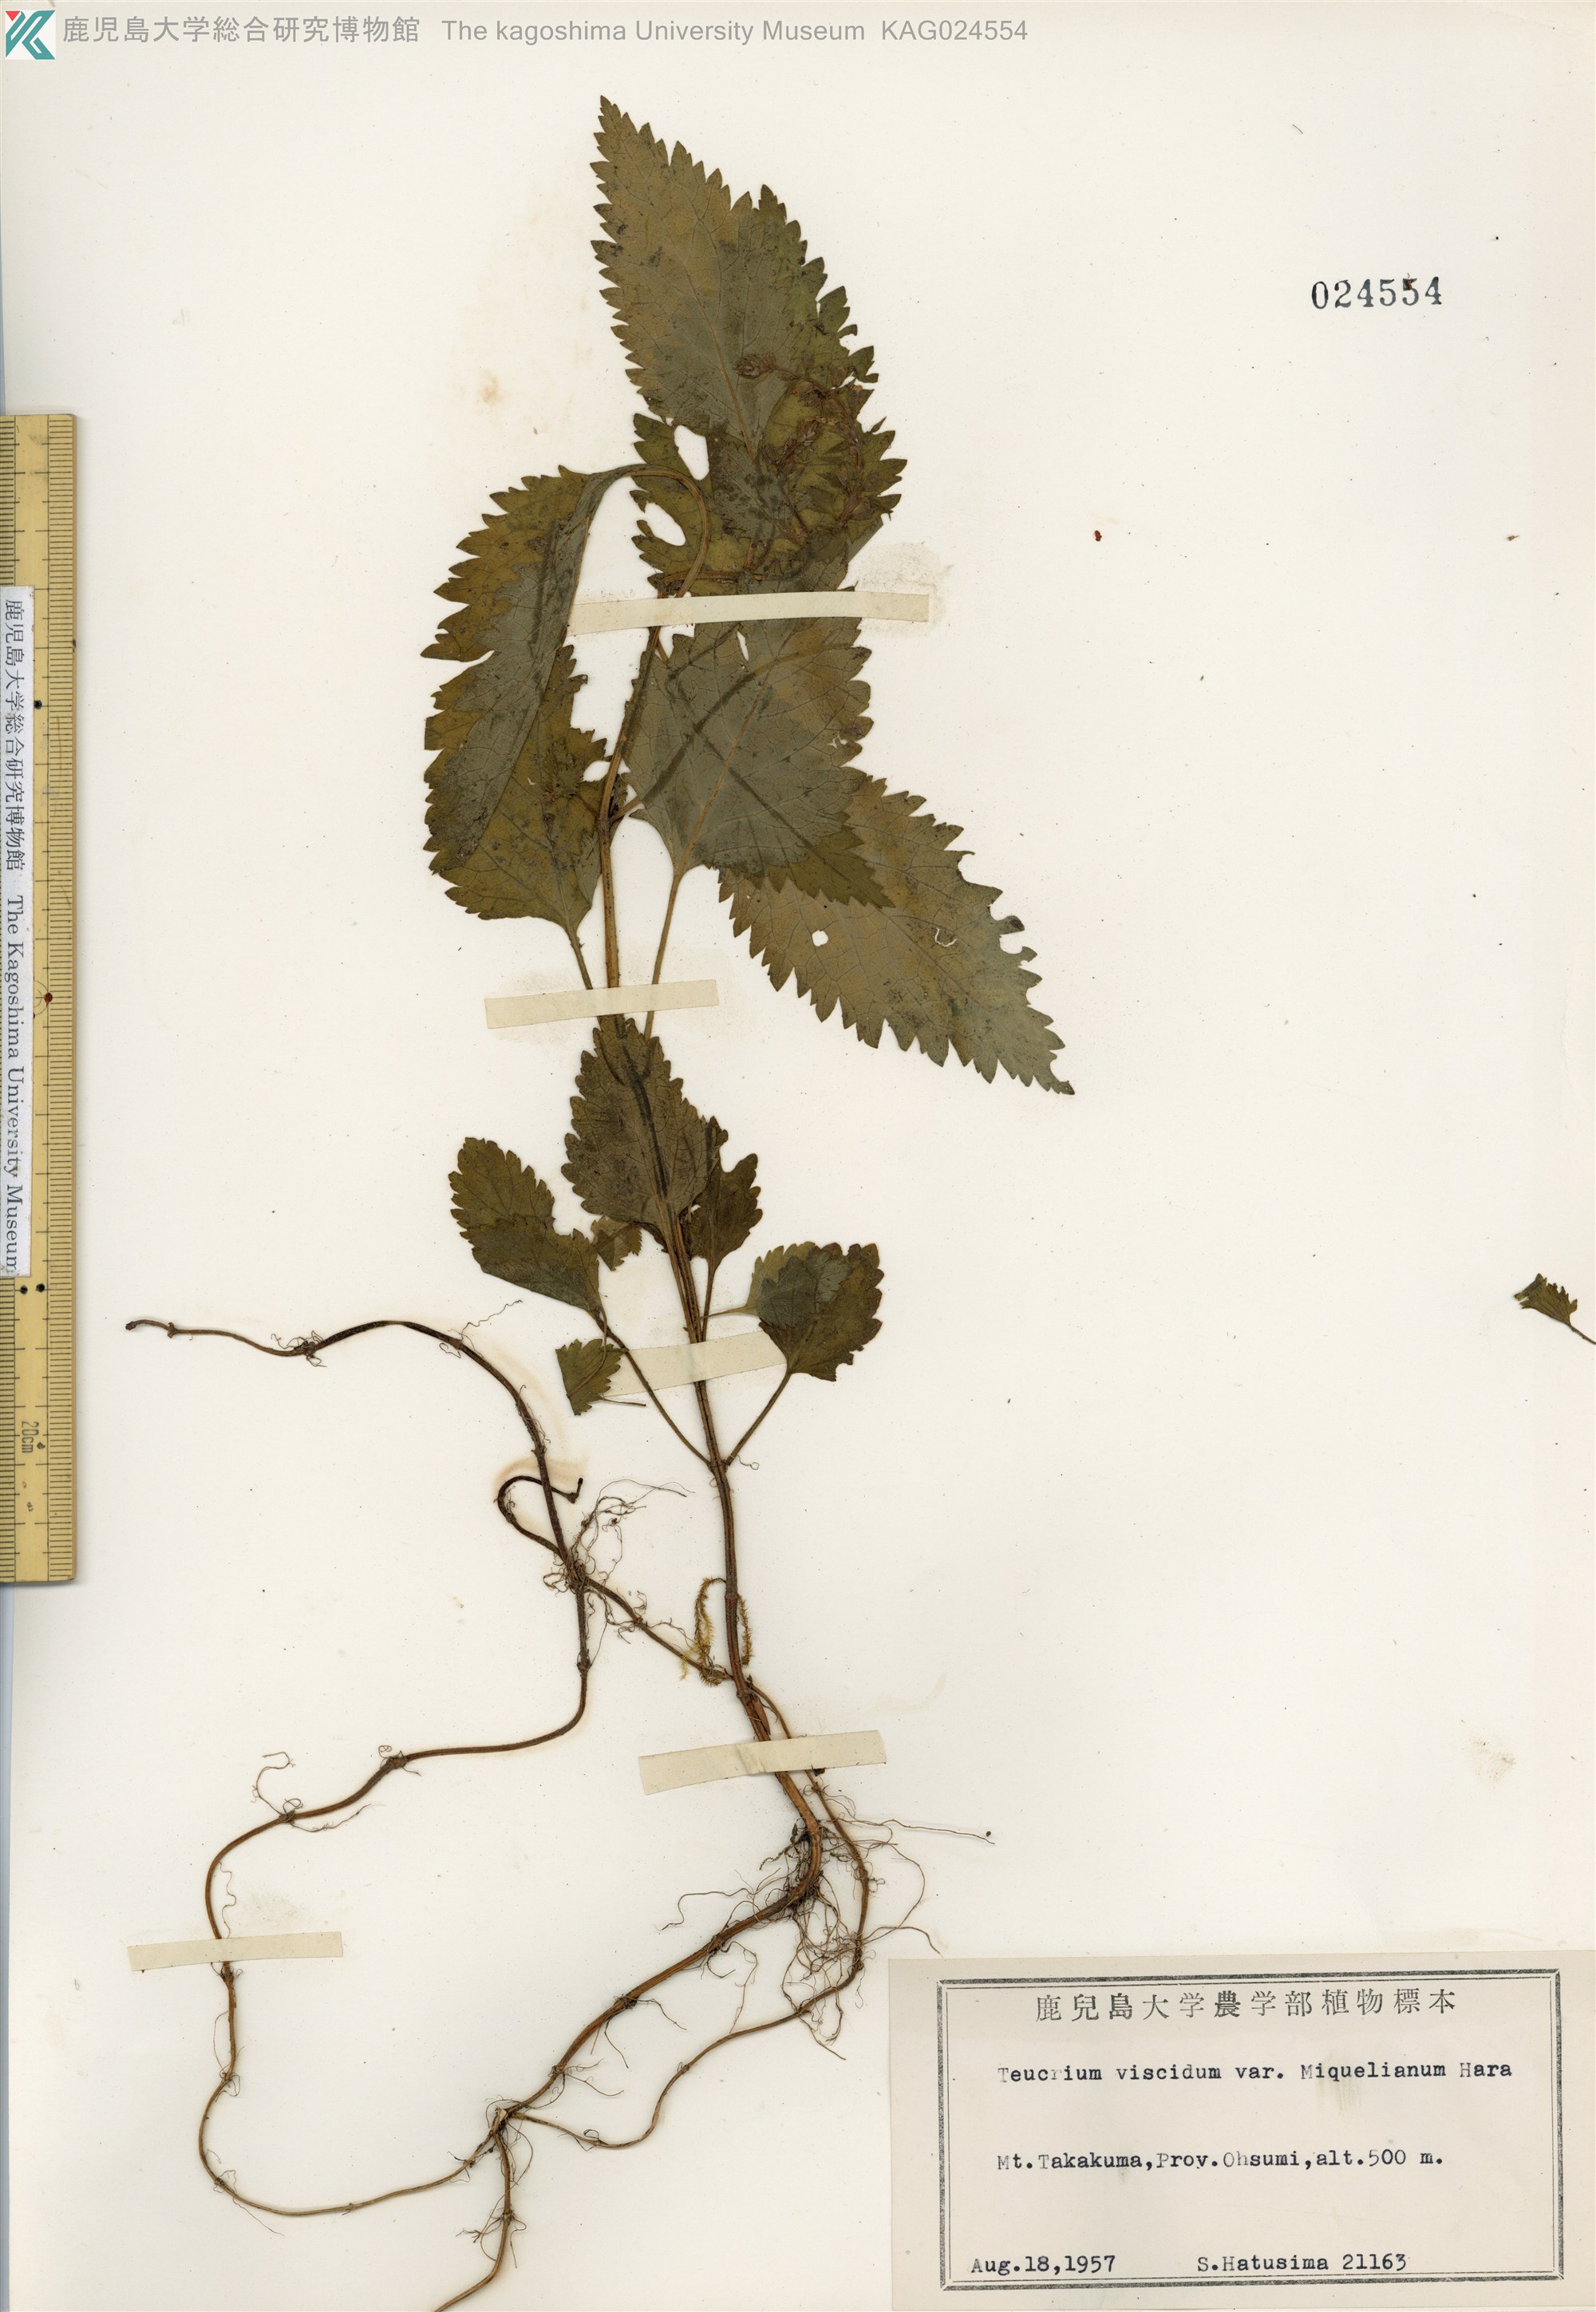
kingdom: Plantae
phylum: Tracheophyta
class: Magnoliopsida
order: Lamiales
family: Lamiaceae
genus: Teucrium
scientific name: Teucrium viscidum
